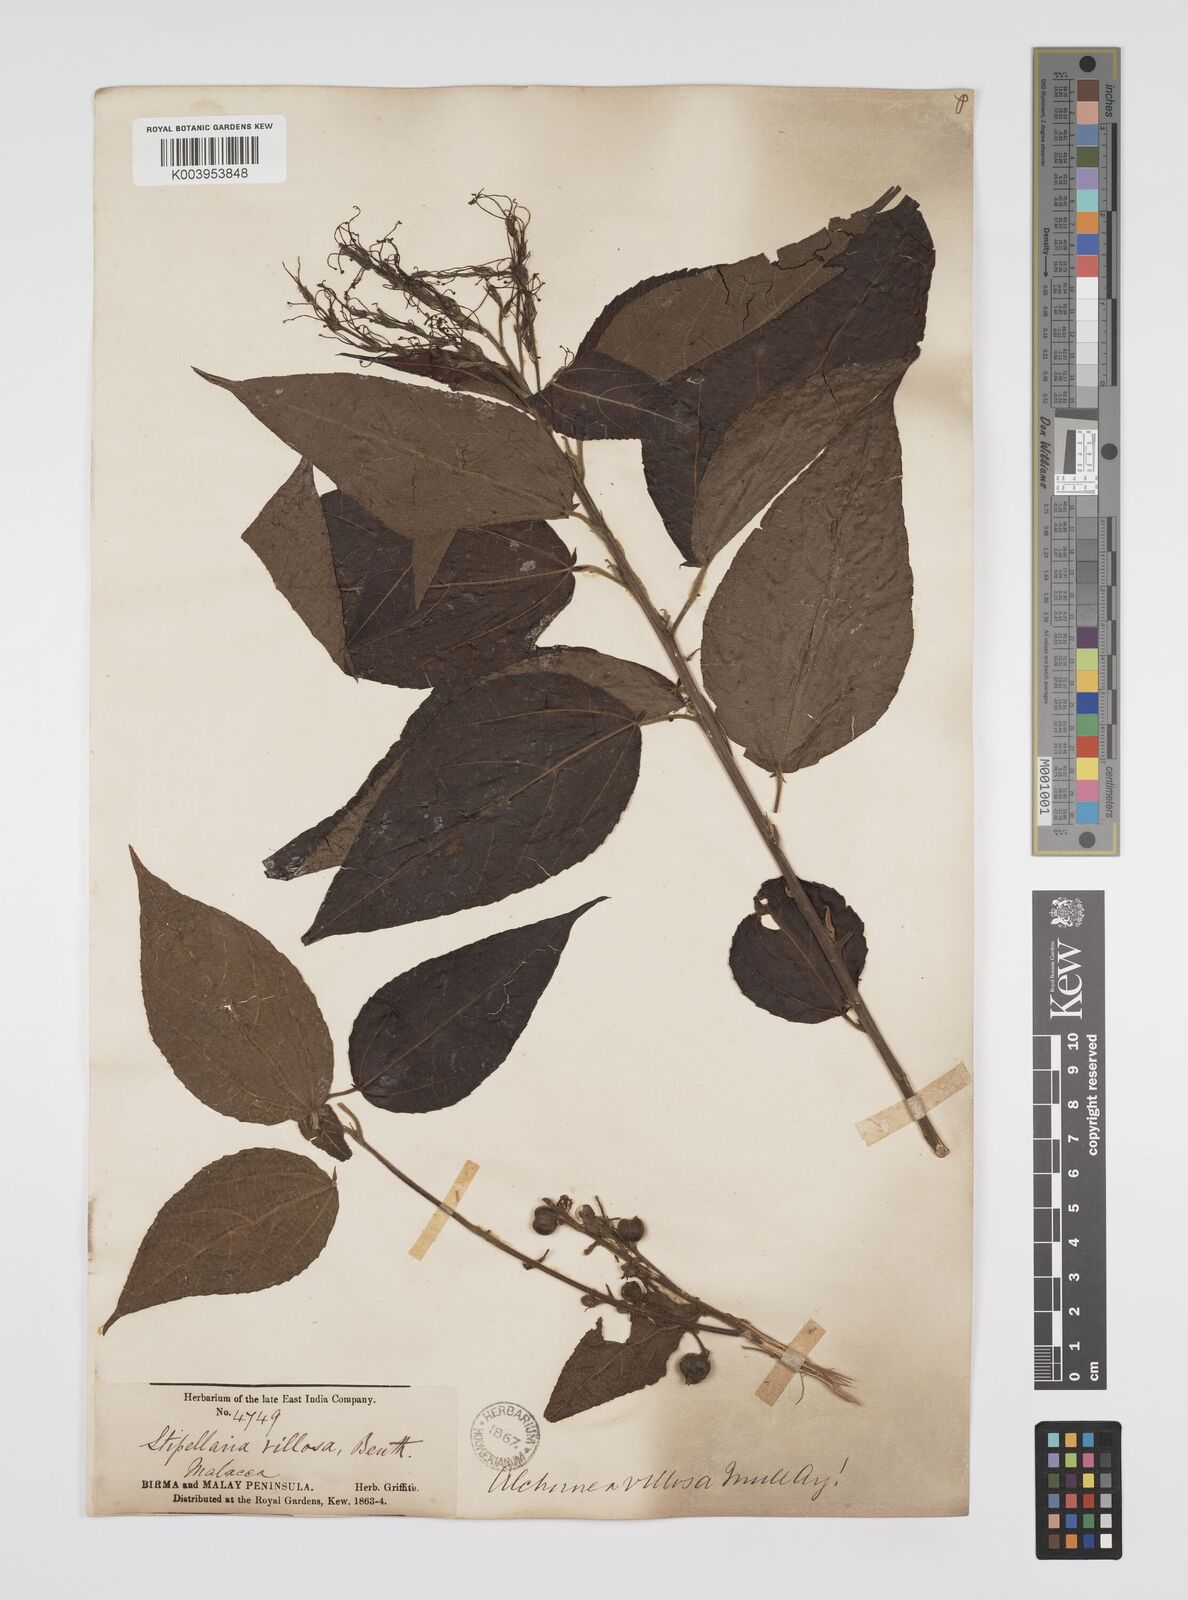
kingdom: Plantae
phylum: Tracheophyta
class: Magnoliopsida
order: Malpighiales
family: Euphorbiaceae
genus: Alchornea
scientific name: Alchornea tiliifolia
